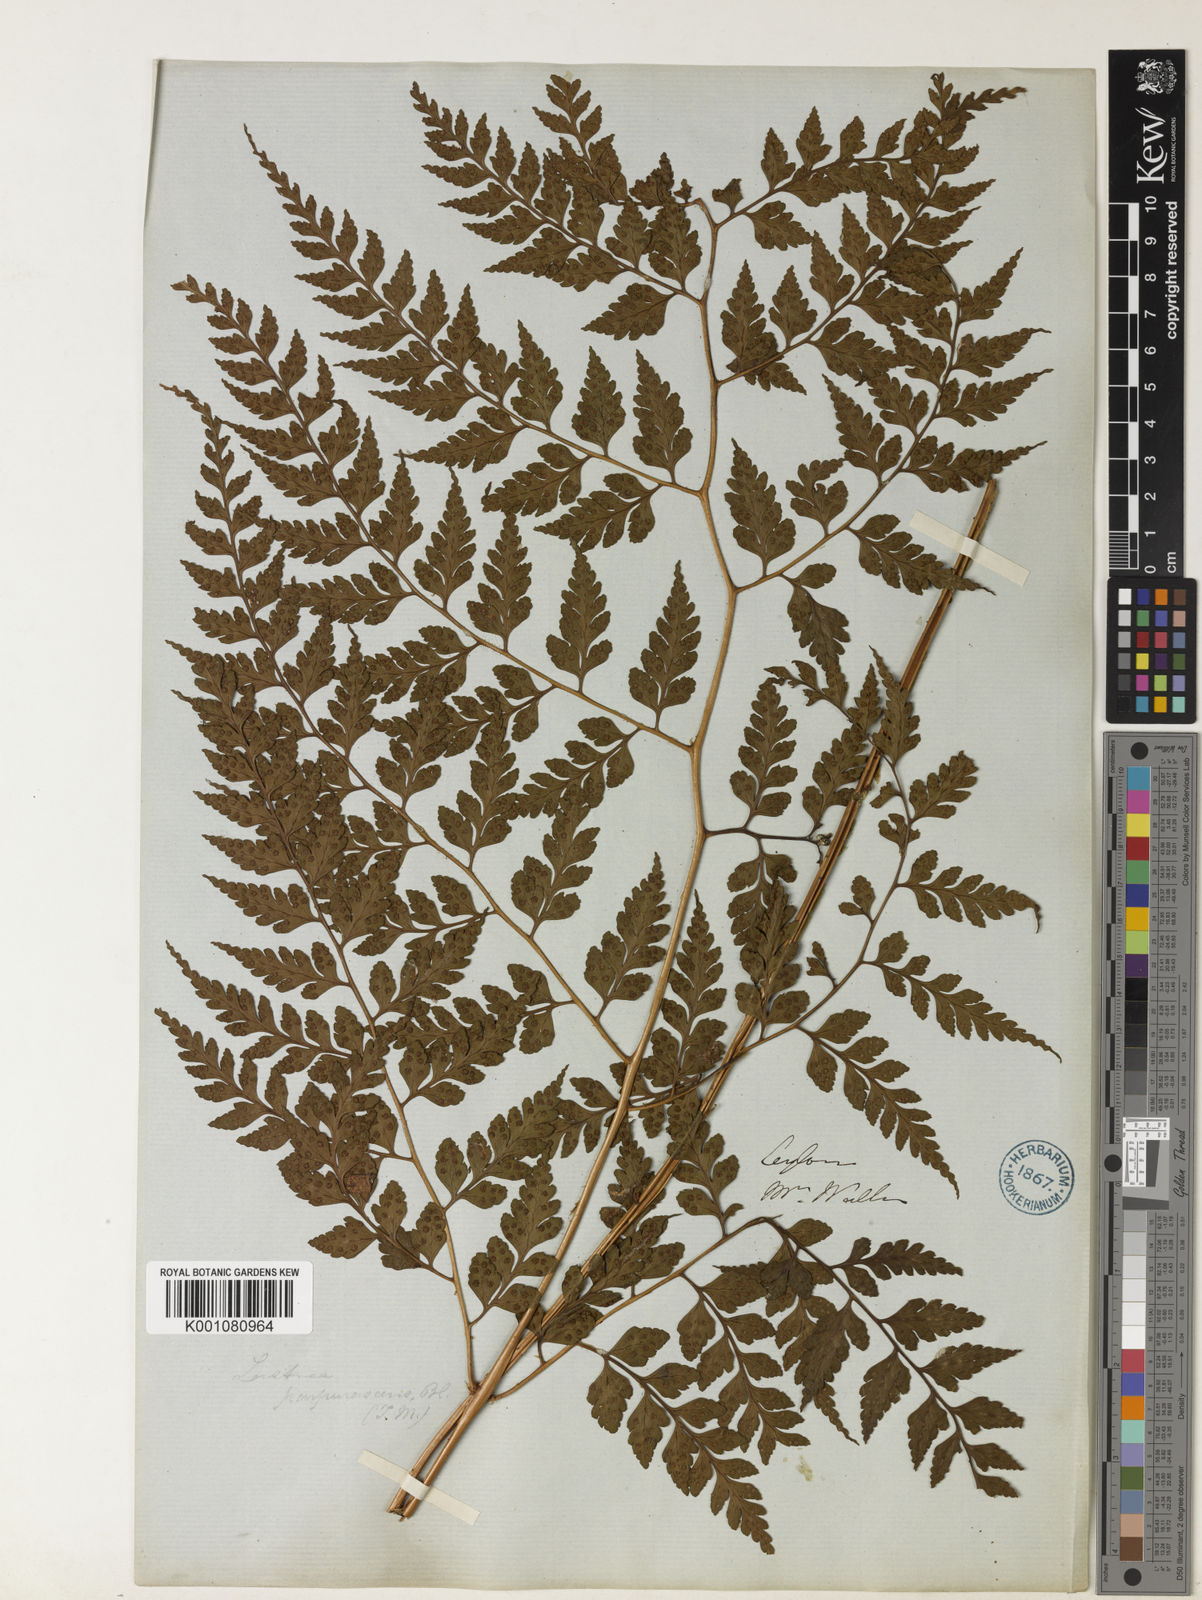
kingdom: Plantae
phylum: Tracheophyta
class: Polypodiopsida
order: Polypodiales
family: Dryopteridaceae
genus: Dryopteris
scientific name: Dryopteris
